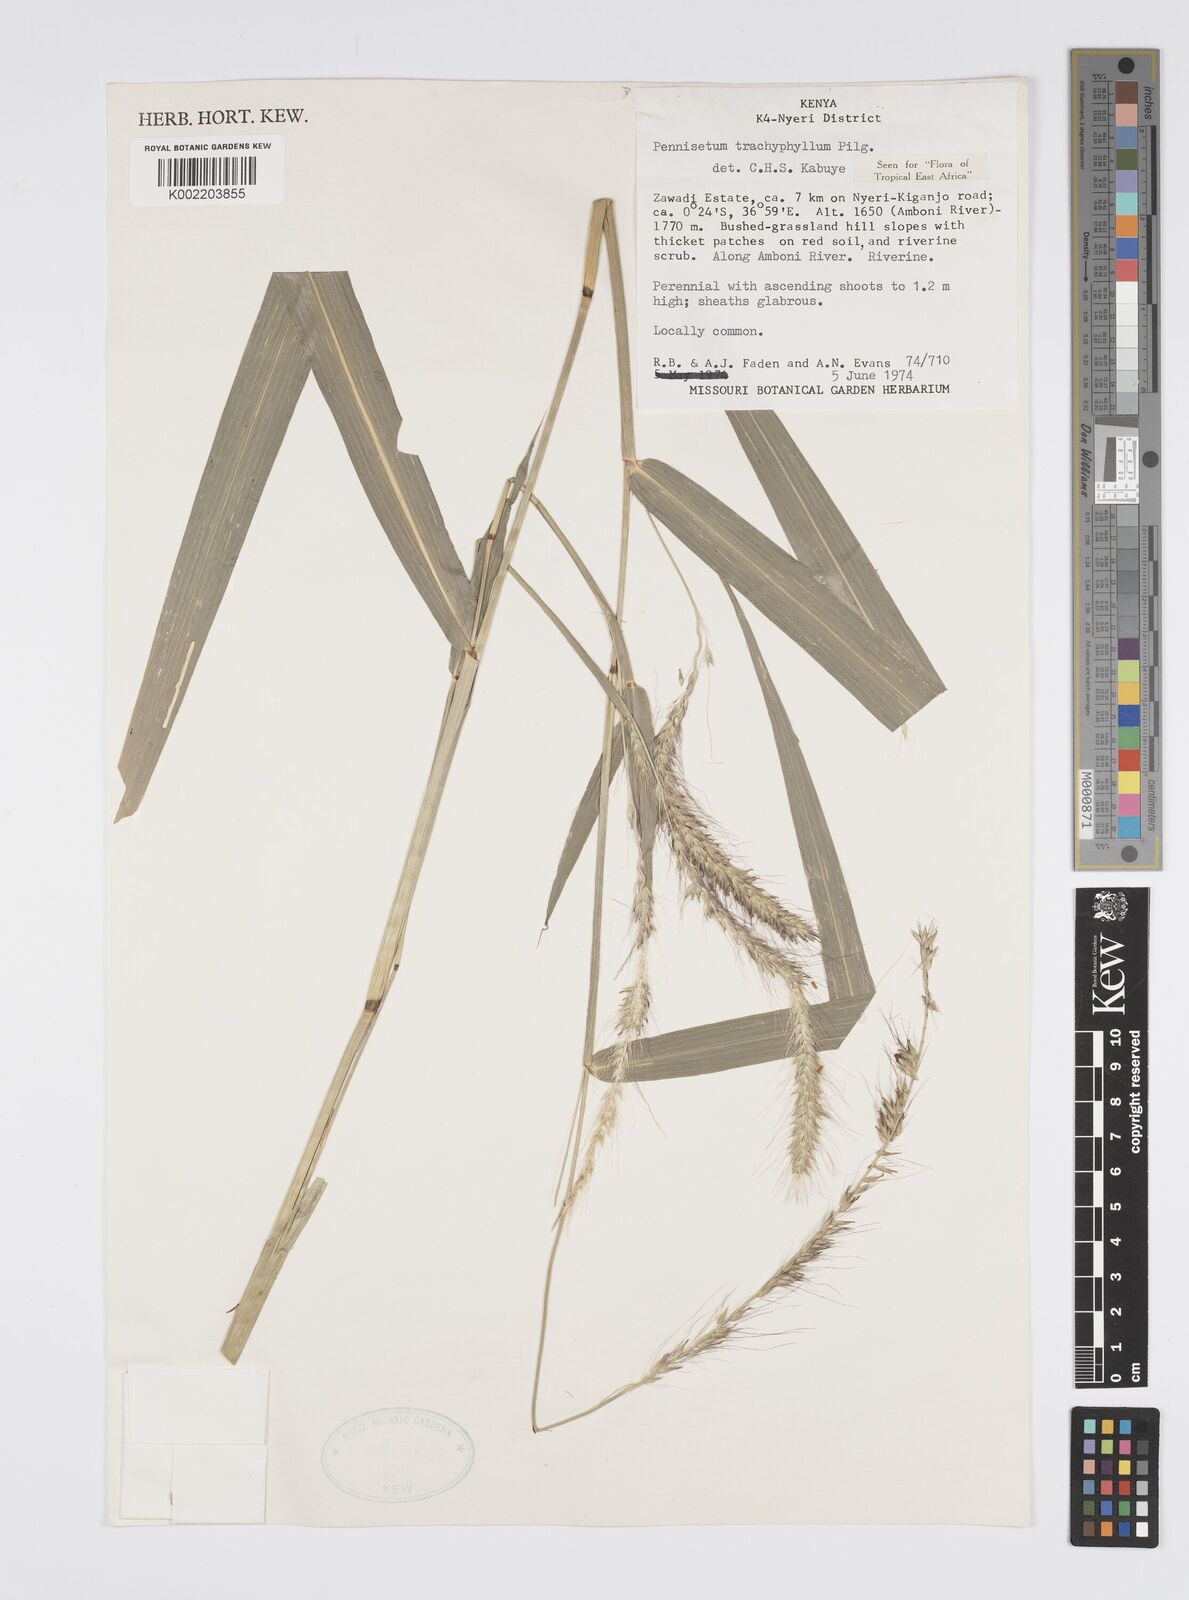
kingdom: Plantae
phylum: Tracheophyta
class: Liliopsida
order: Poales
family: Poaceae
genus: Cenchrus
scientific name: Cenchrus trachyphyllus
